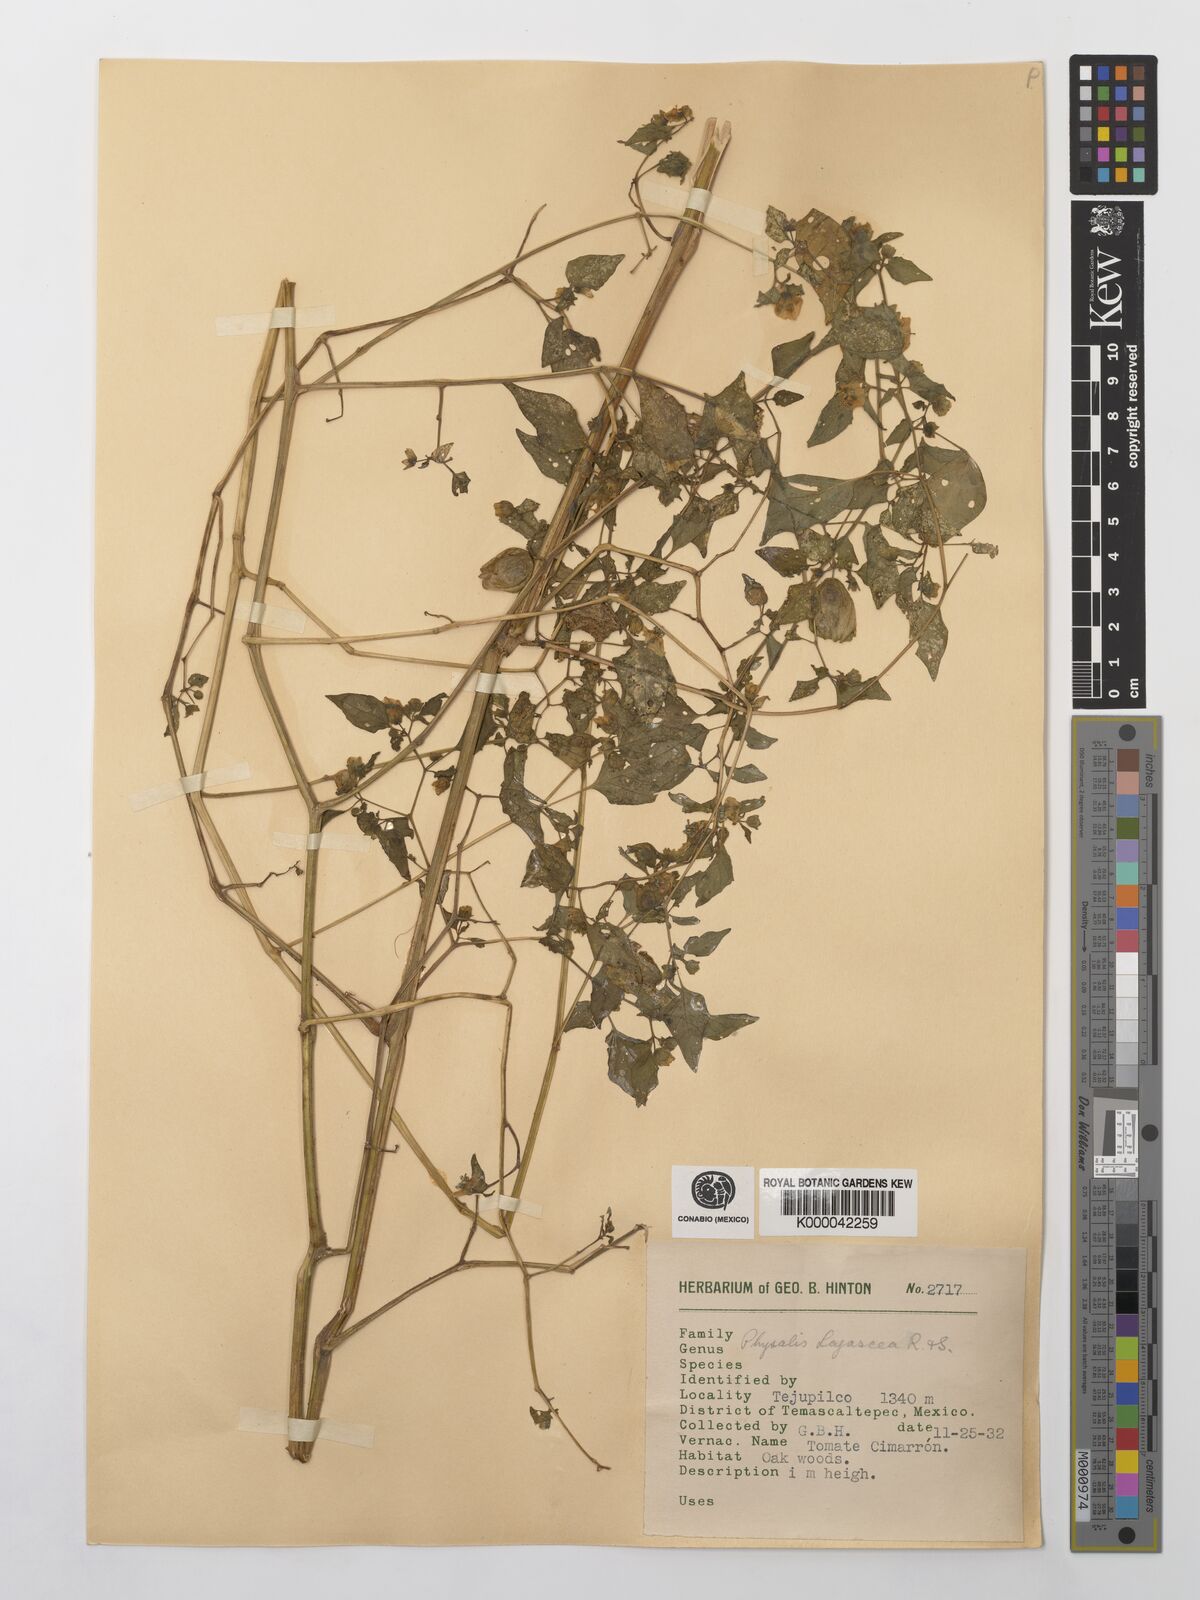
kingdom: Plantae
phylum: Tracheophyta
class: Magnoliopsida
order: Solanales
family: Solanaceae
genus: Physalis
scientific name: Physalis lagascae
